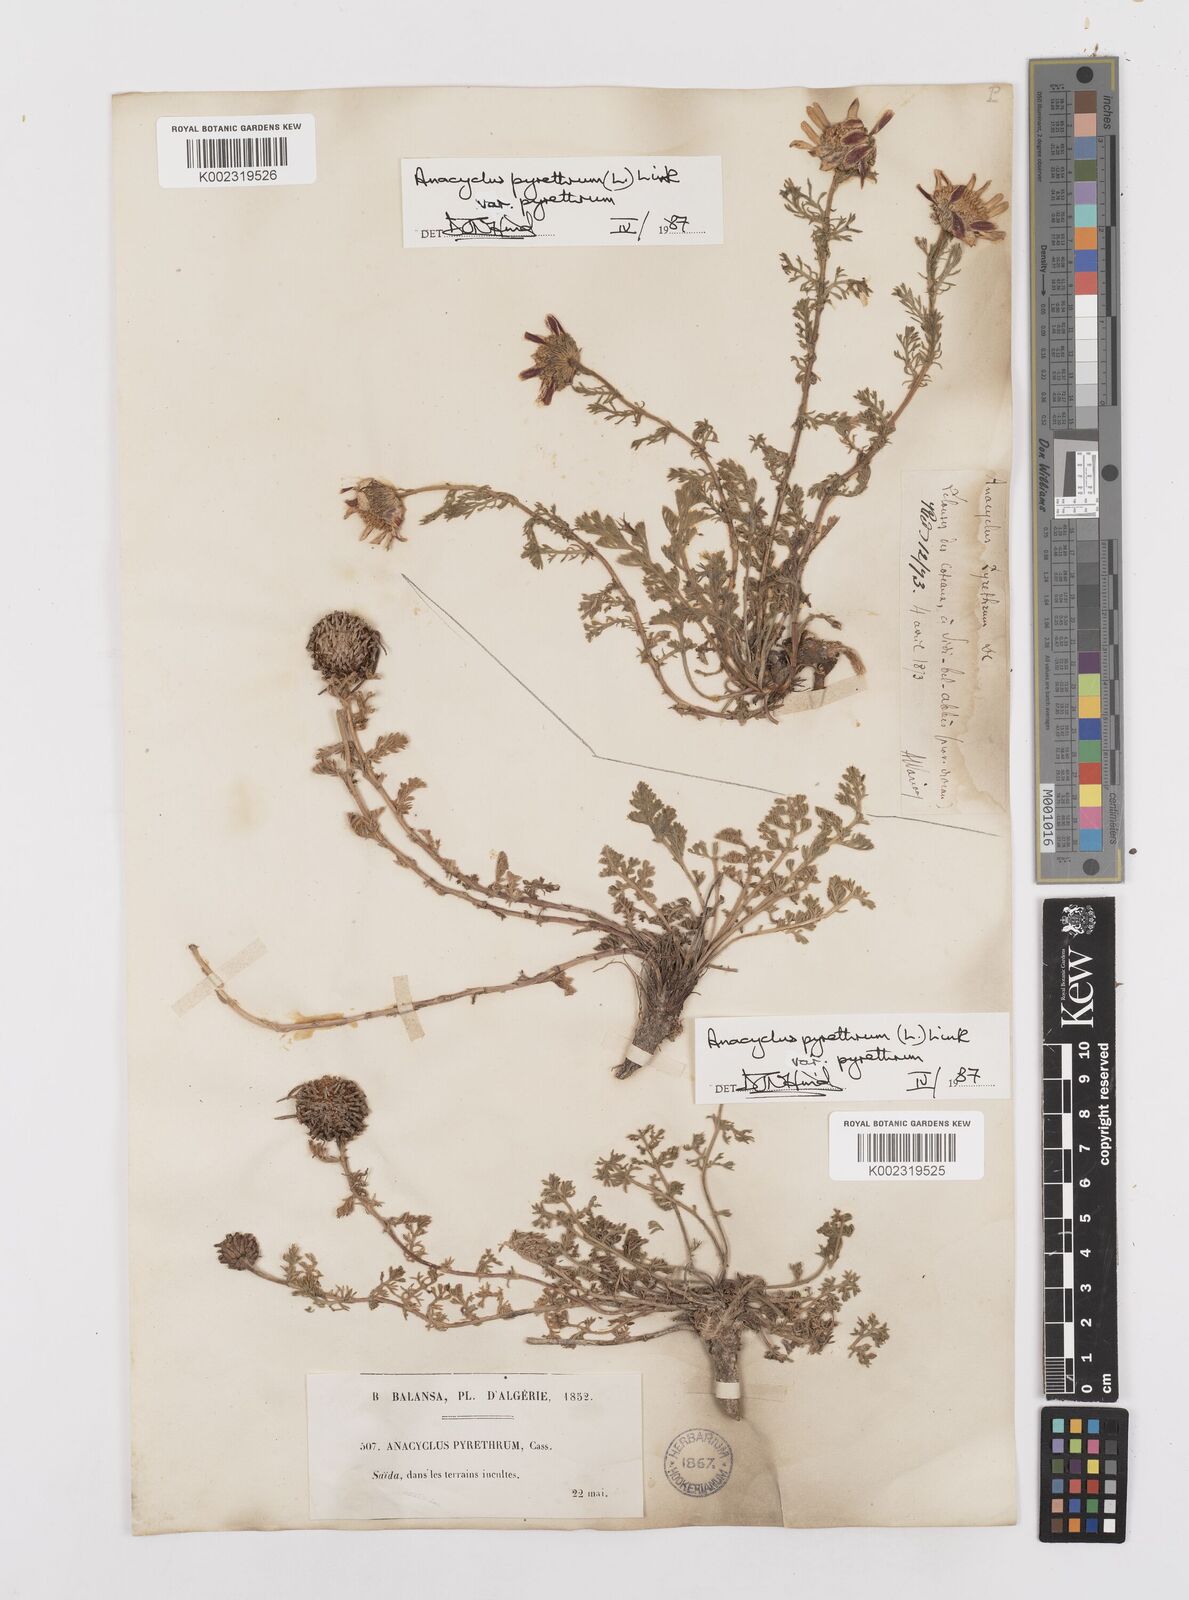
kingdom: Plantae
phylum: Tracheophyta
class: Magnoliopsida
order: Asterales
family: Asteraceae
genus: Anacyclus
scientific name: Anacyclus pyrethrum
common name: Mt. atlas daisy
